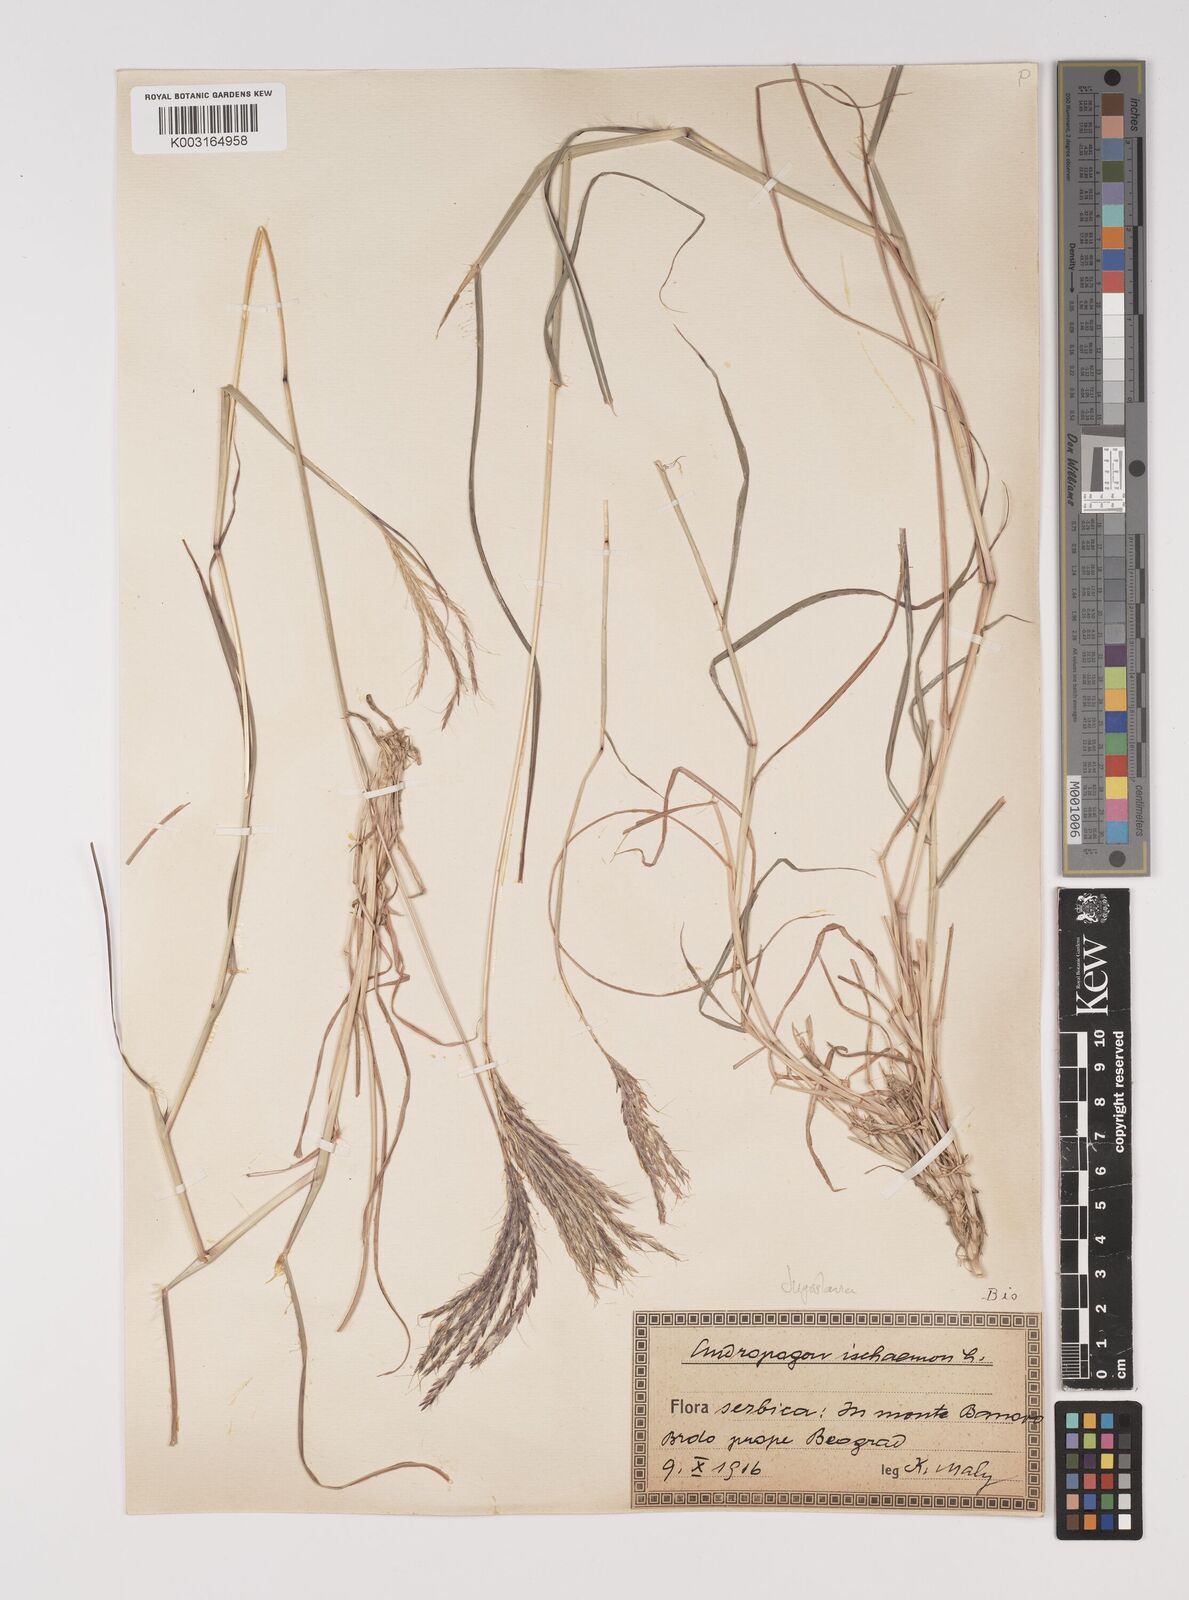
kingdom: Plantae
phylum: Tracheophyta
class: Liliopsida
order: Poales
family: Poaceae
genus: Bothriochloa
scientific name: Bothriochloa ischaemum
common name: Yellow bluestem
